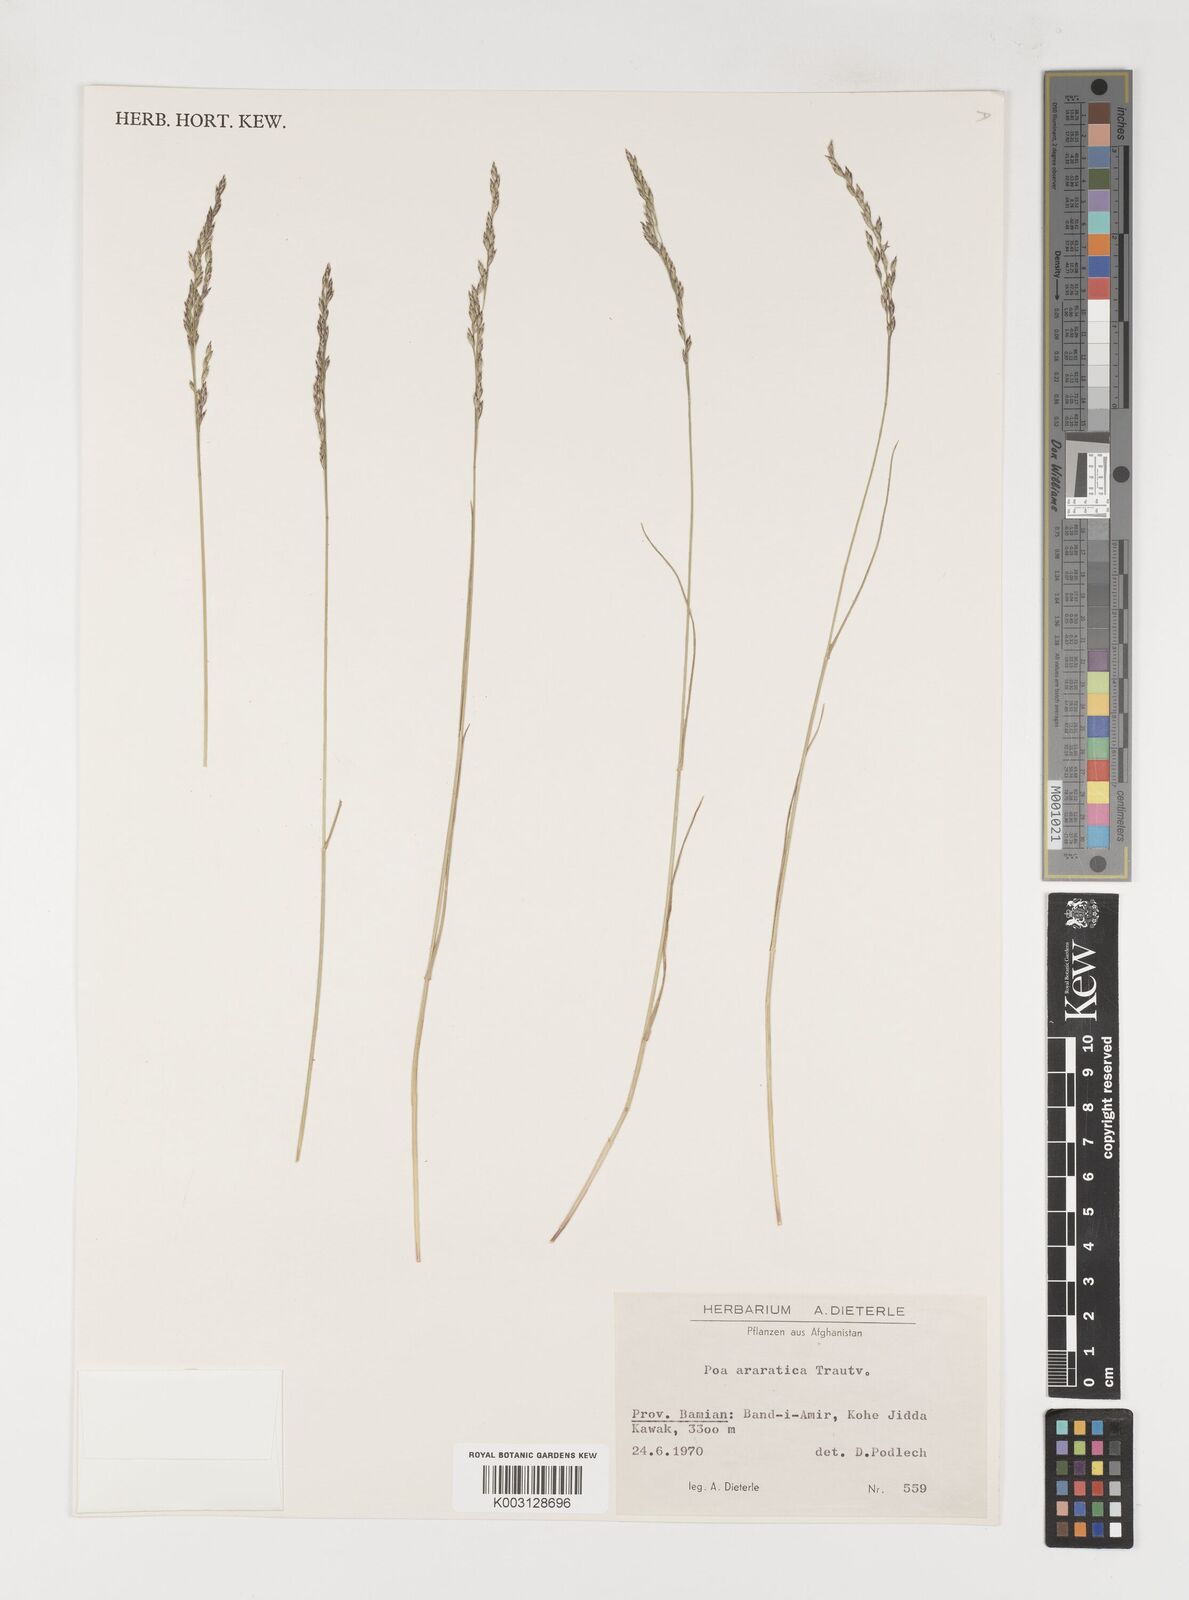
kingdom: Plantae
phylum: Tracheophyta
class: Liliopsida
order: Poales
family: Poaceae
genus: Poa
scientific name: Poa araratica
